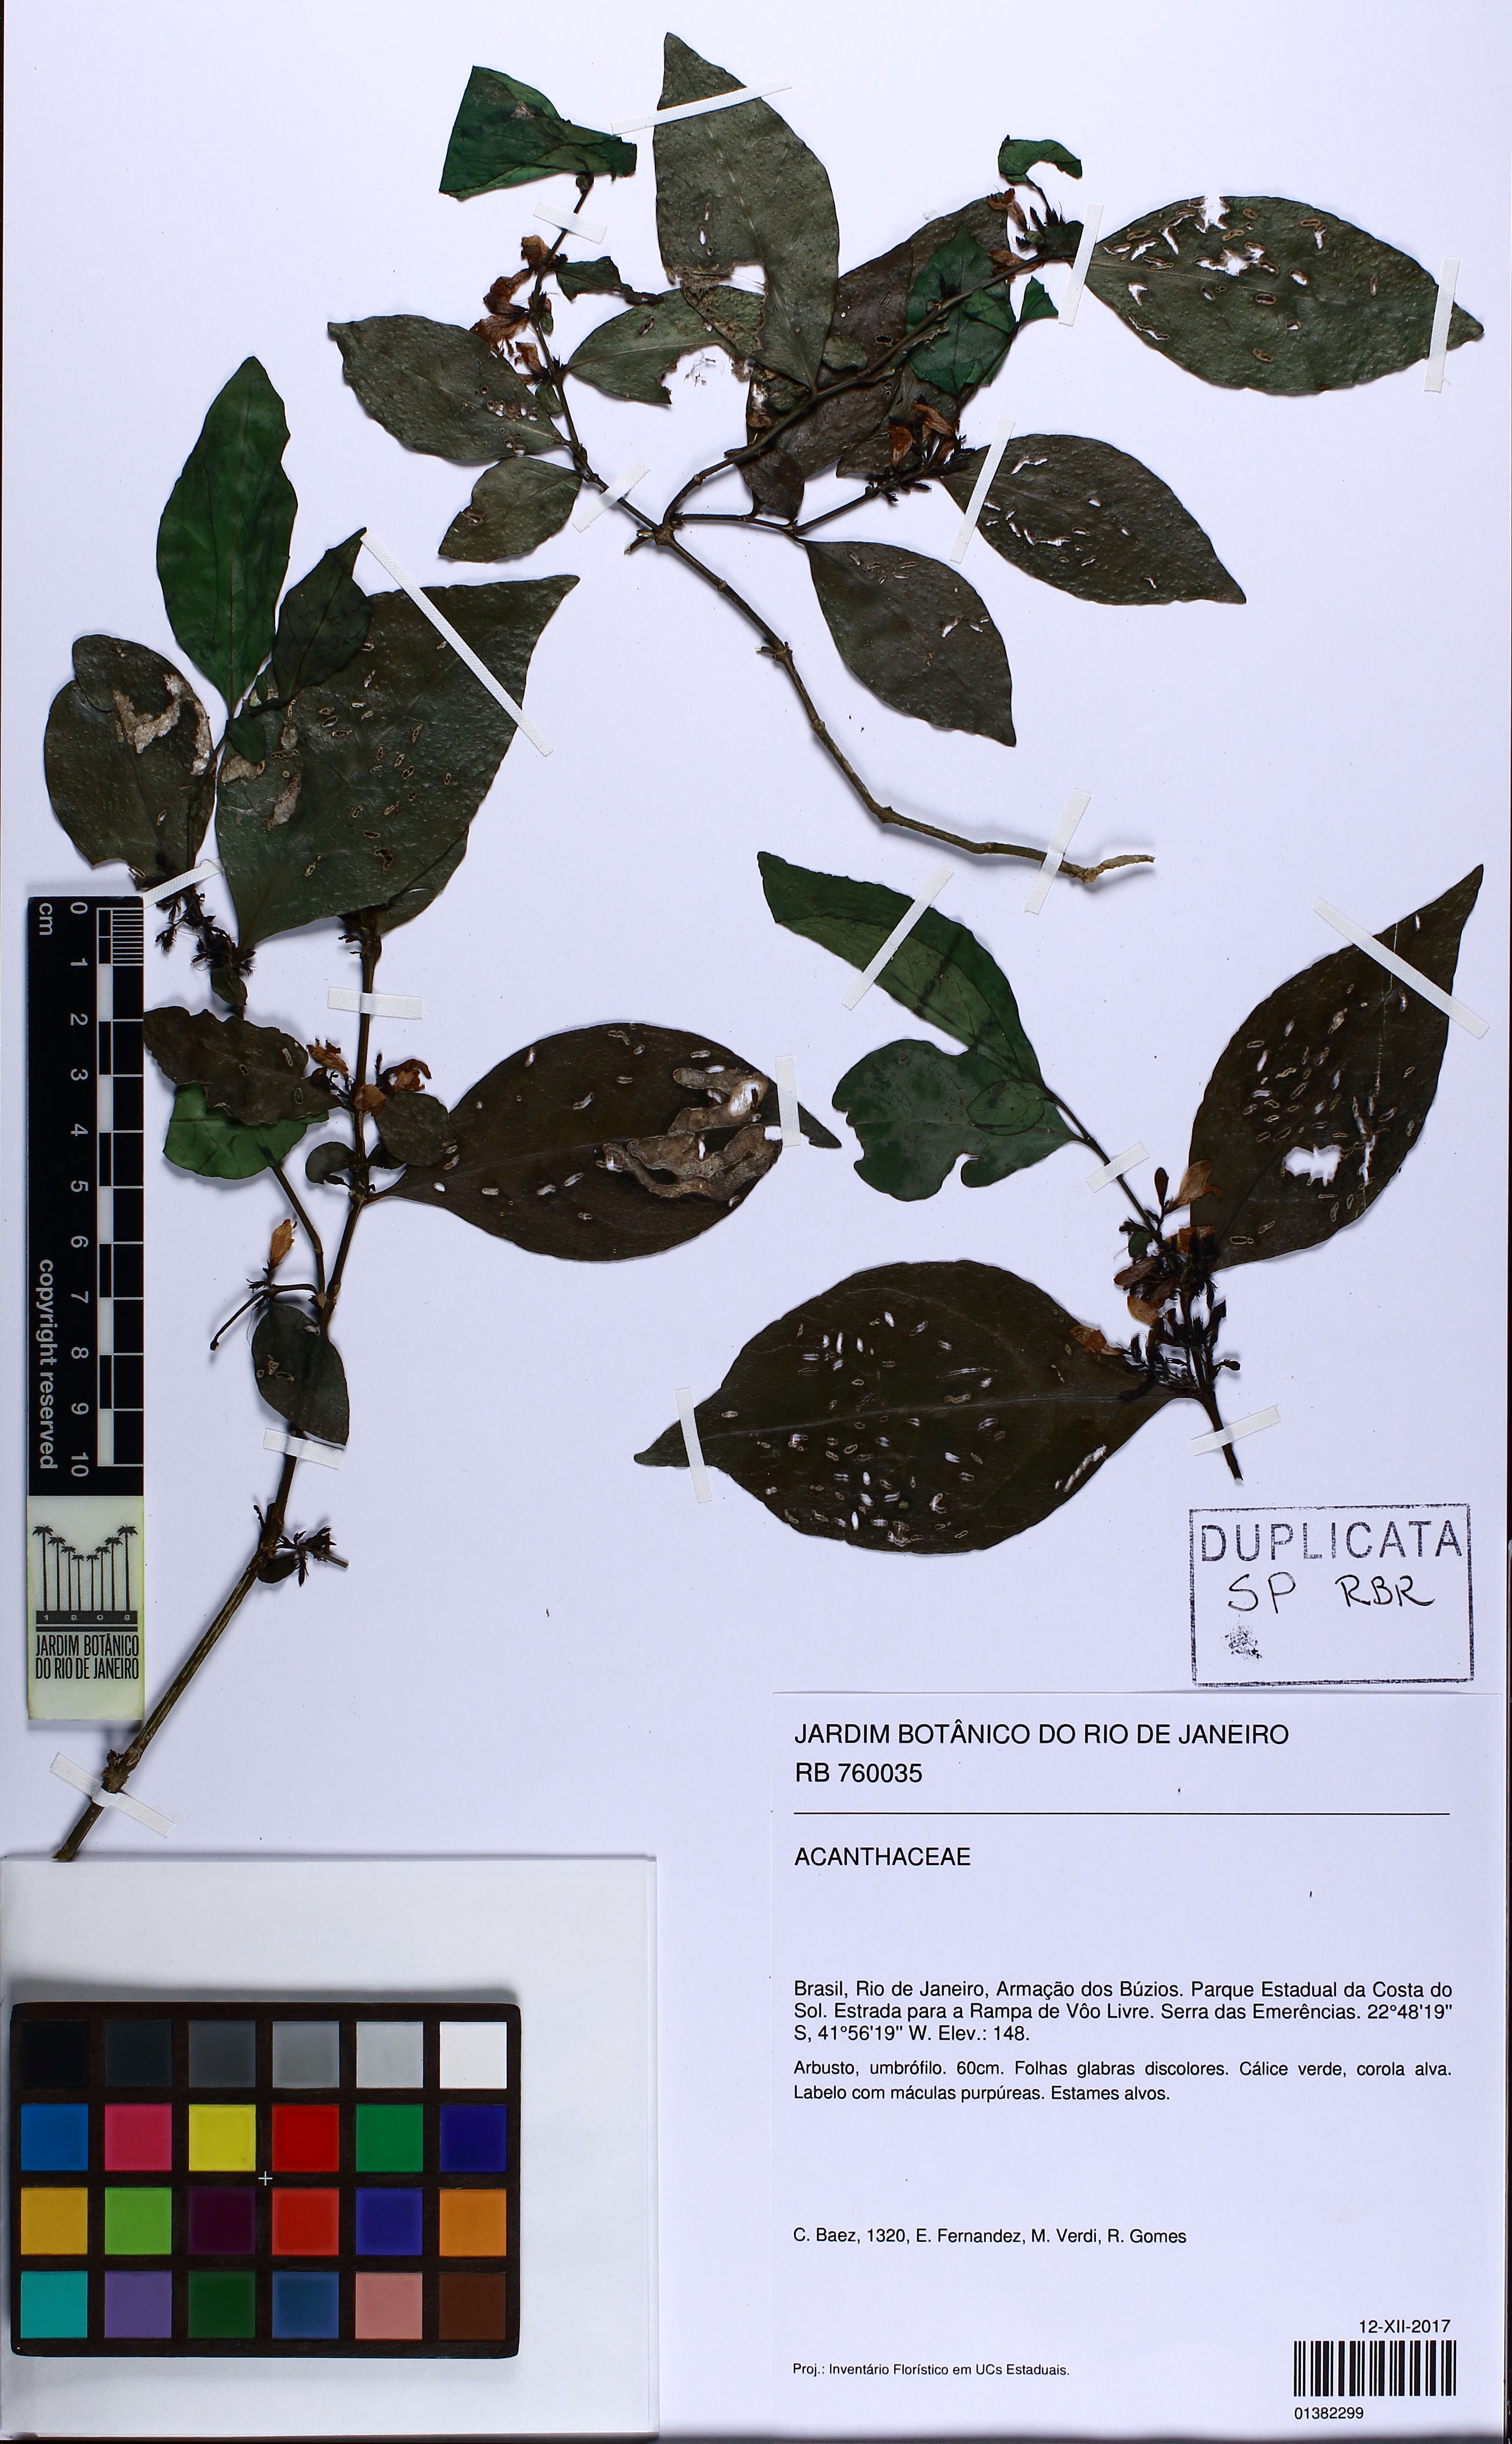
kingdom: Plantae
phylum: Tracheophyta
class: Magnoliopsida
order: Lamiales
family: Acanthaceae
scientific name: Acanthaceae
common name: Acanthaceae
